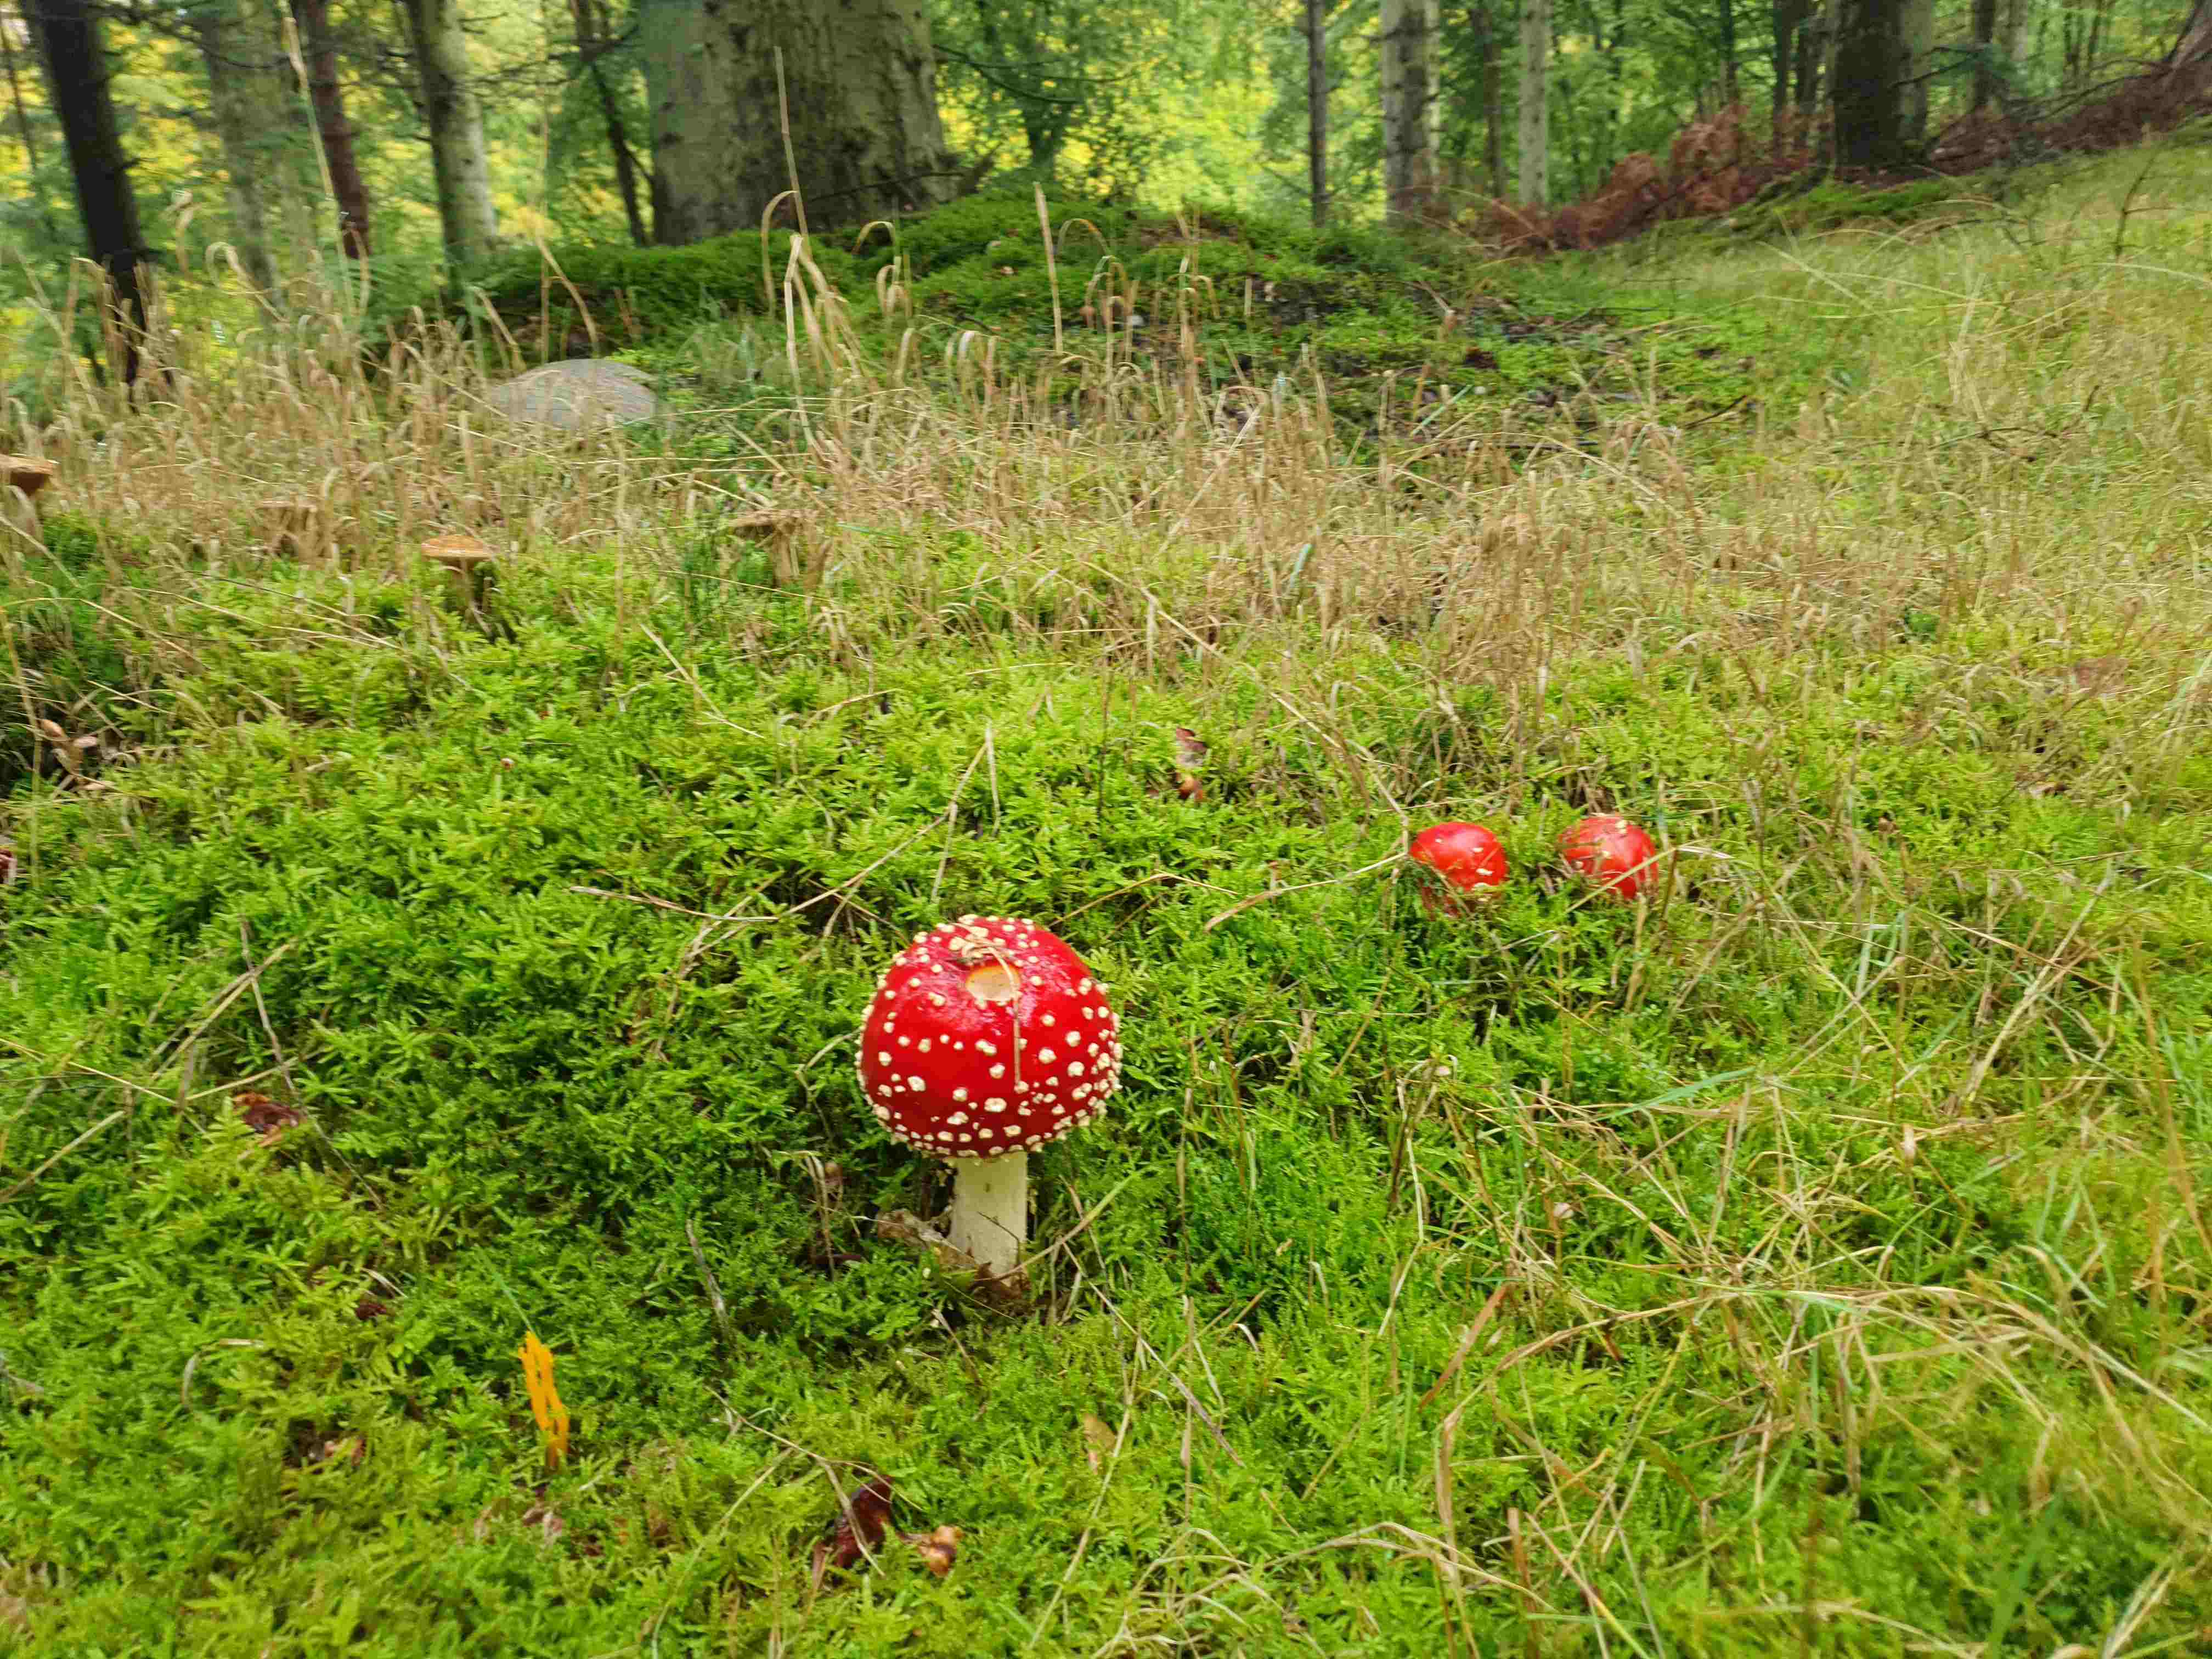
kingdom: Fungi
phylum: Basidiomycota
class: Agaricomycetes
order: Agaricales
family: Amanitaceae
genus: Amanita
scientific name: Amanita muscaria
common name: rød fluesvamp
